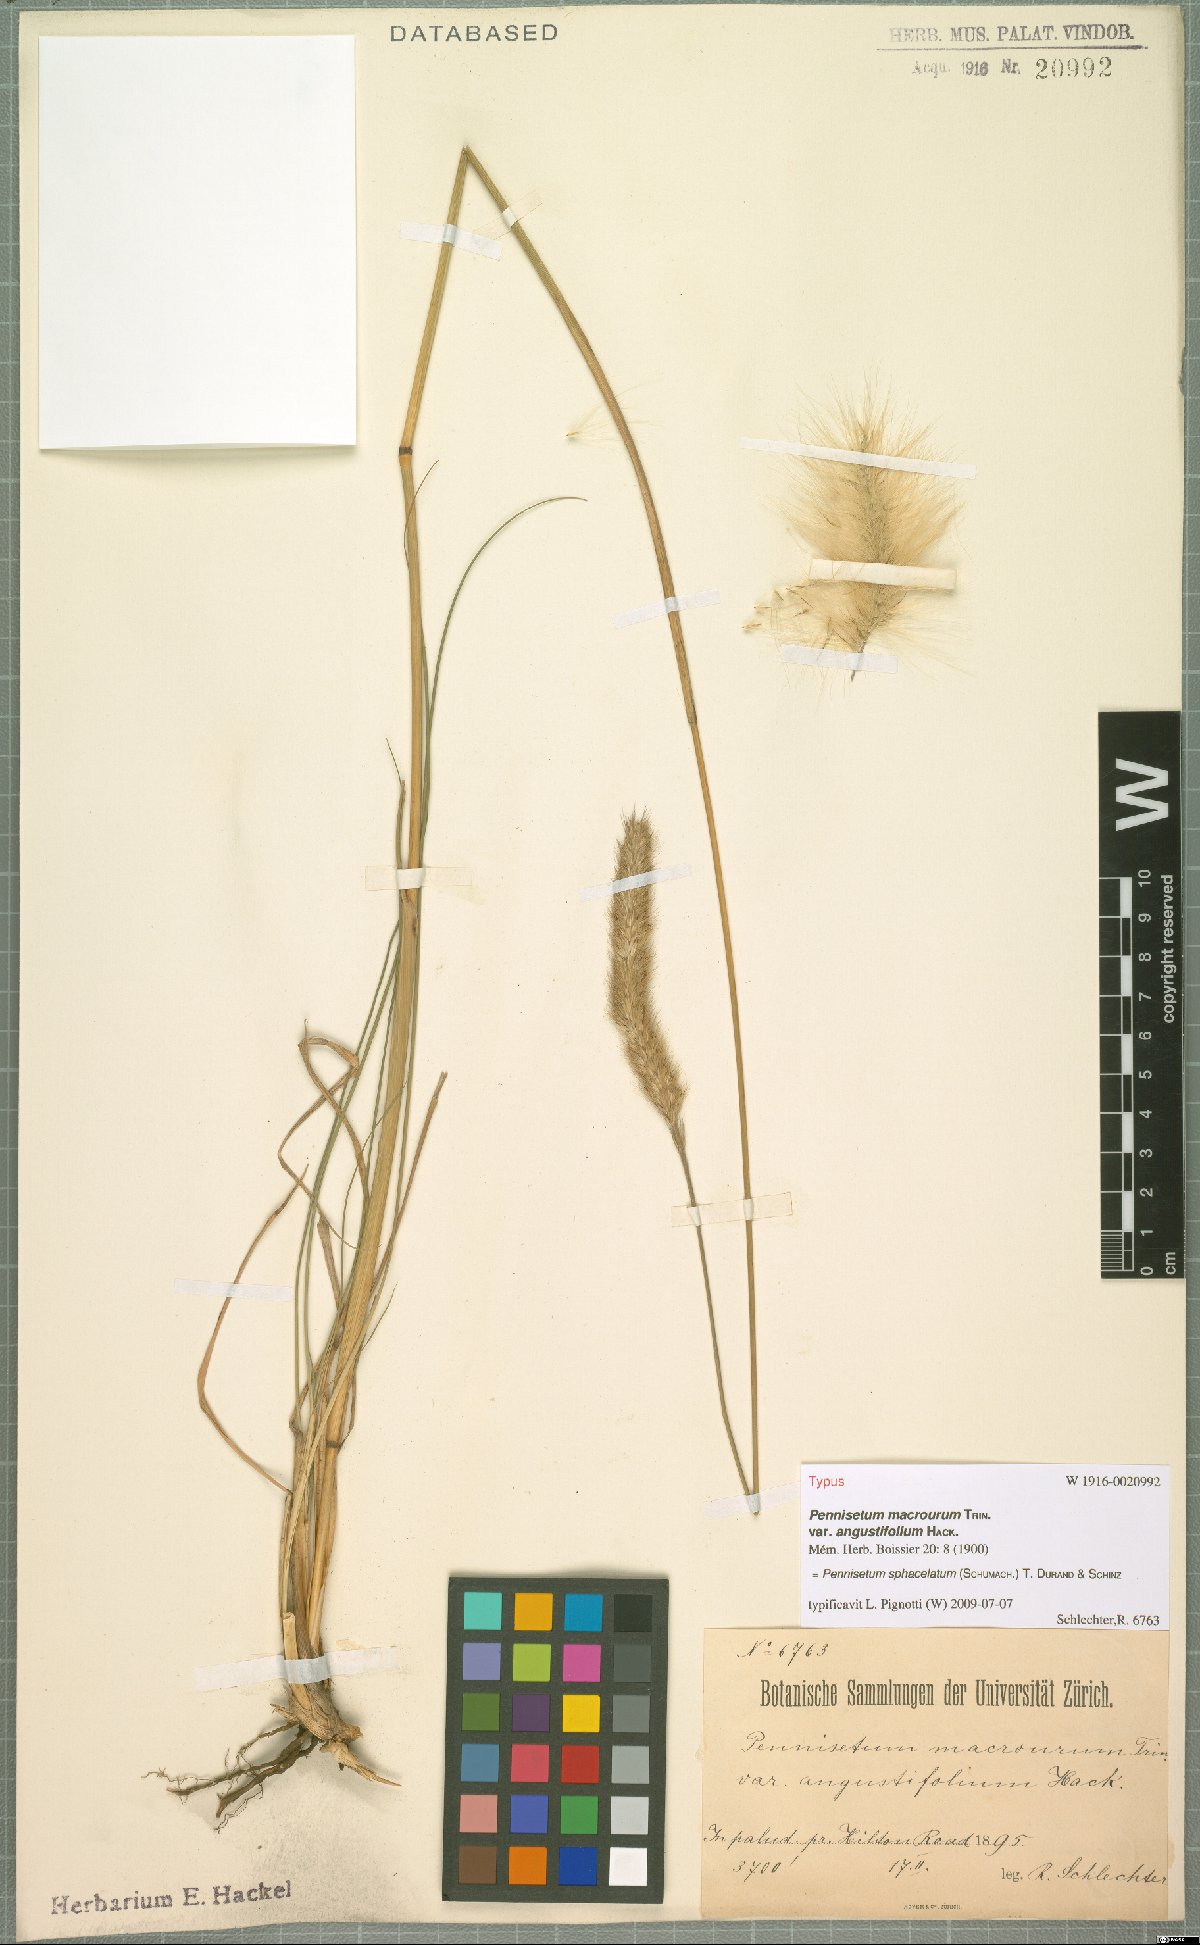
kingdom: Plantae
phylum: Tracheophyta
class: Liliopsida
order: Poales
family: Poaceae
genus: Cenchrus
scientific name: Cenchrus sphacelatus
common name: Bulgras
